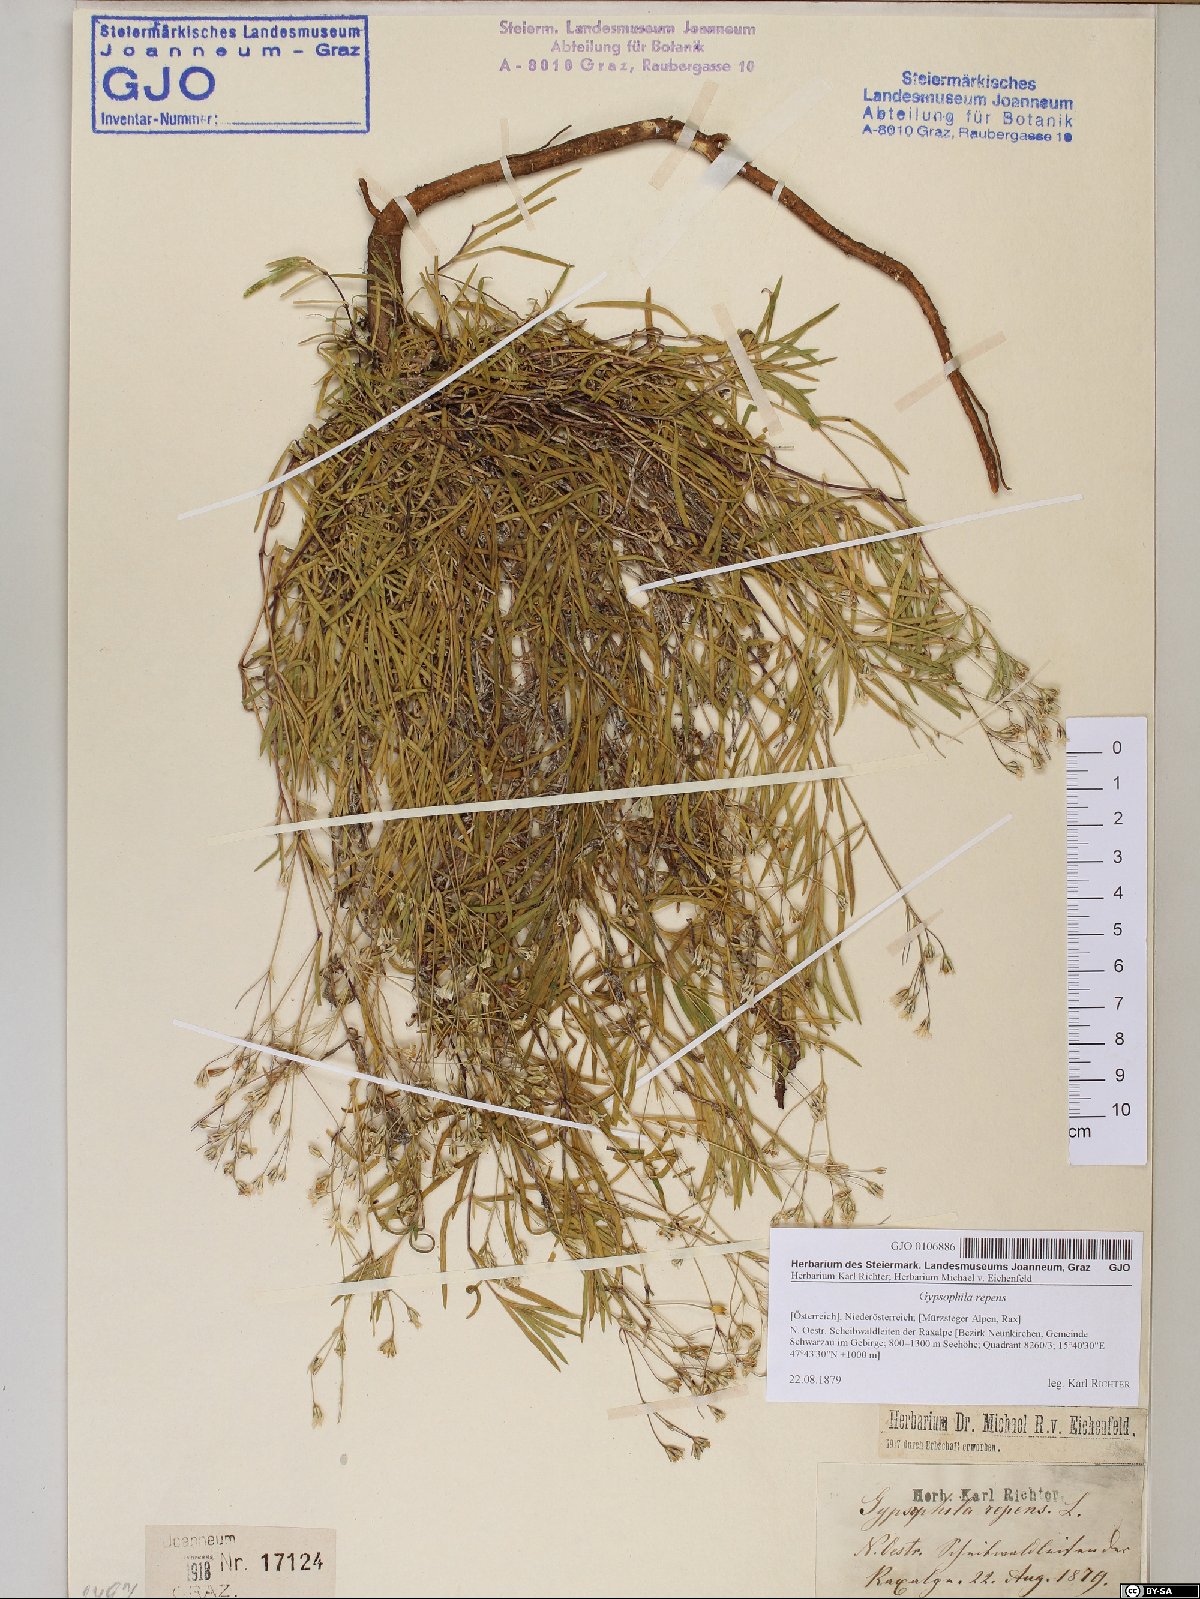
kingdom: Plantae
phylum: Tracheophyta
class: Magnoliopsida
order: Caryophyllales
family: Caryophyllaceae
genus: Gypsophila
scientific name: Gypsophila repens
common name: Creeping baby's-breath
